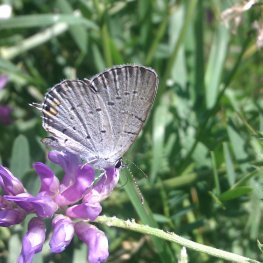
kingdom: Animalia
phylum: Arthropoda
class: Insecta
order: Lepidoptera
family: Lycaenidae
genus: Elkalyce
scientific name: Elkalyce comyntas
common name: Eastern Tailed-Blue
